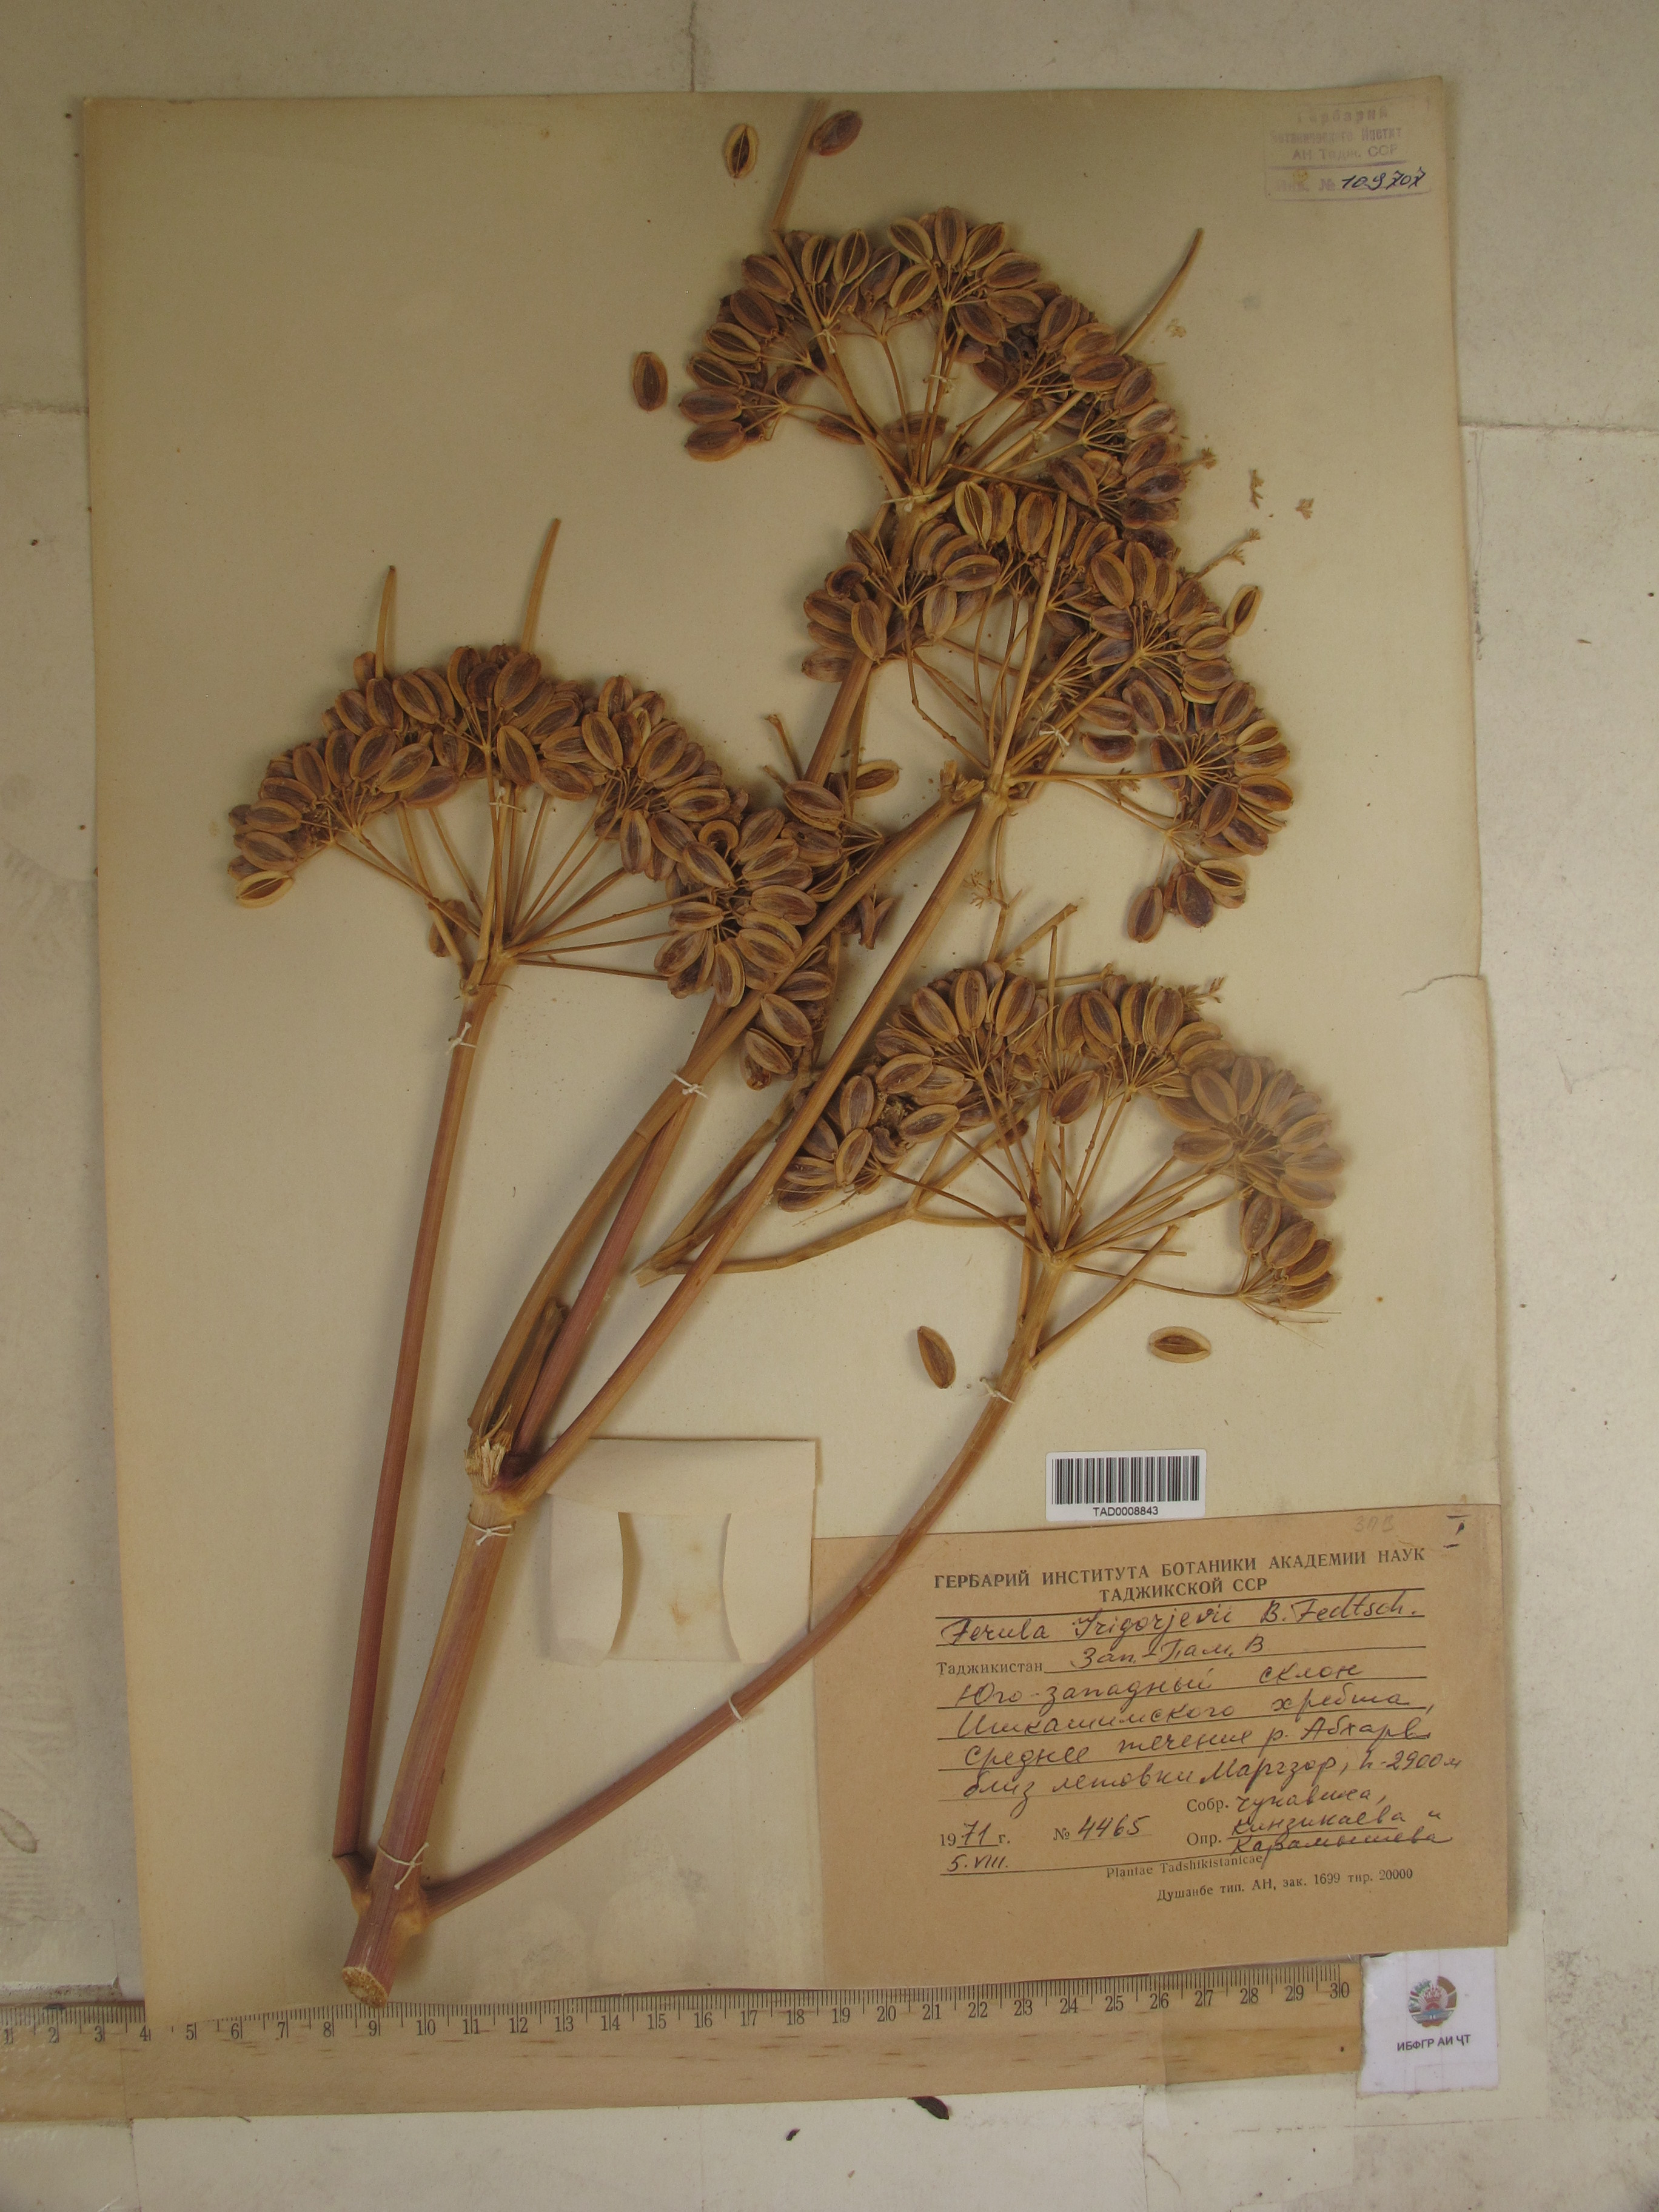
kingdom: Plantae
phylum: Tracheophyta
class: Magnoliopsida
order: Apiales
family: Apiaceae
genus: Ferula
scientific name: Ferula grigoriewii
